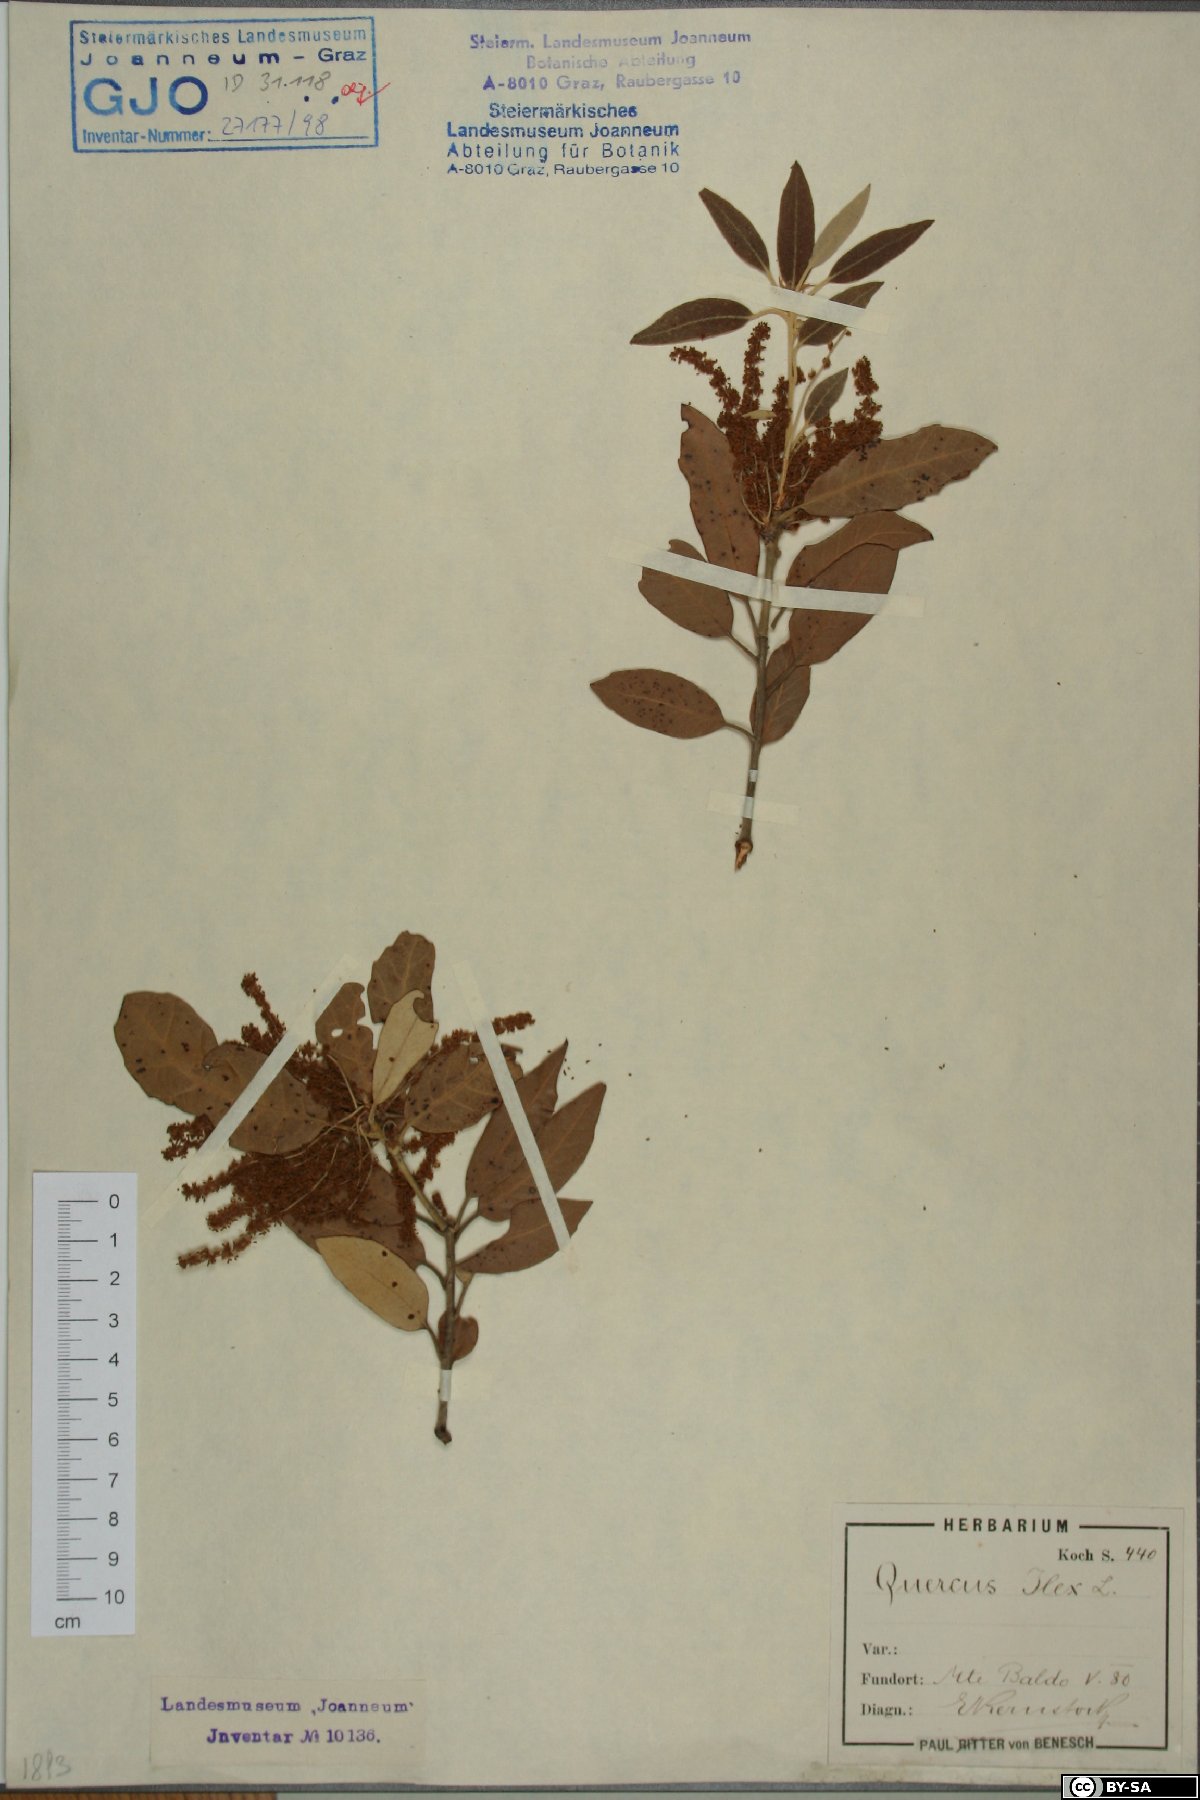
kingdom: Plantae
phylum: Tracheophyta
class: Magnoliopsida
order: Fagales
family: Fagaceae
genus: Quercus
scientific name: Quercus ilex
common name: Evergreen oak
